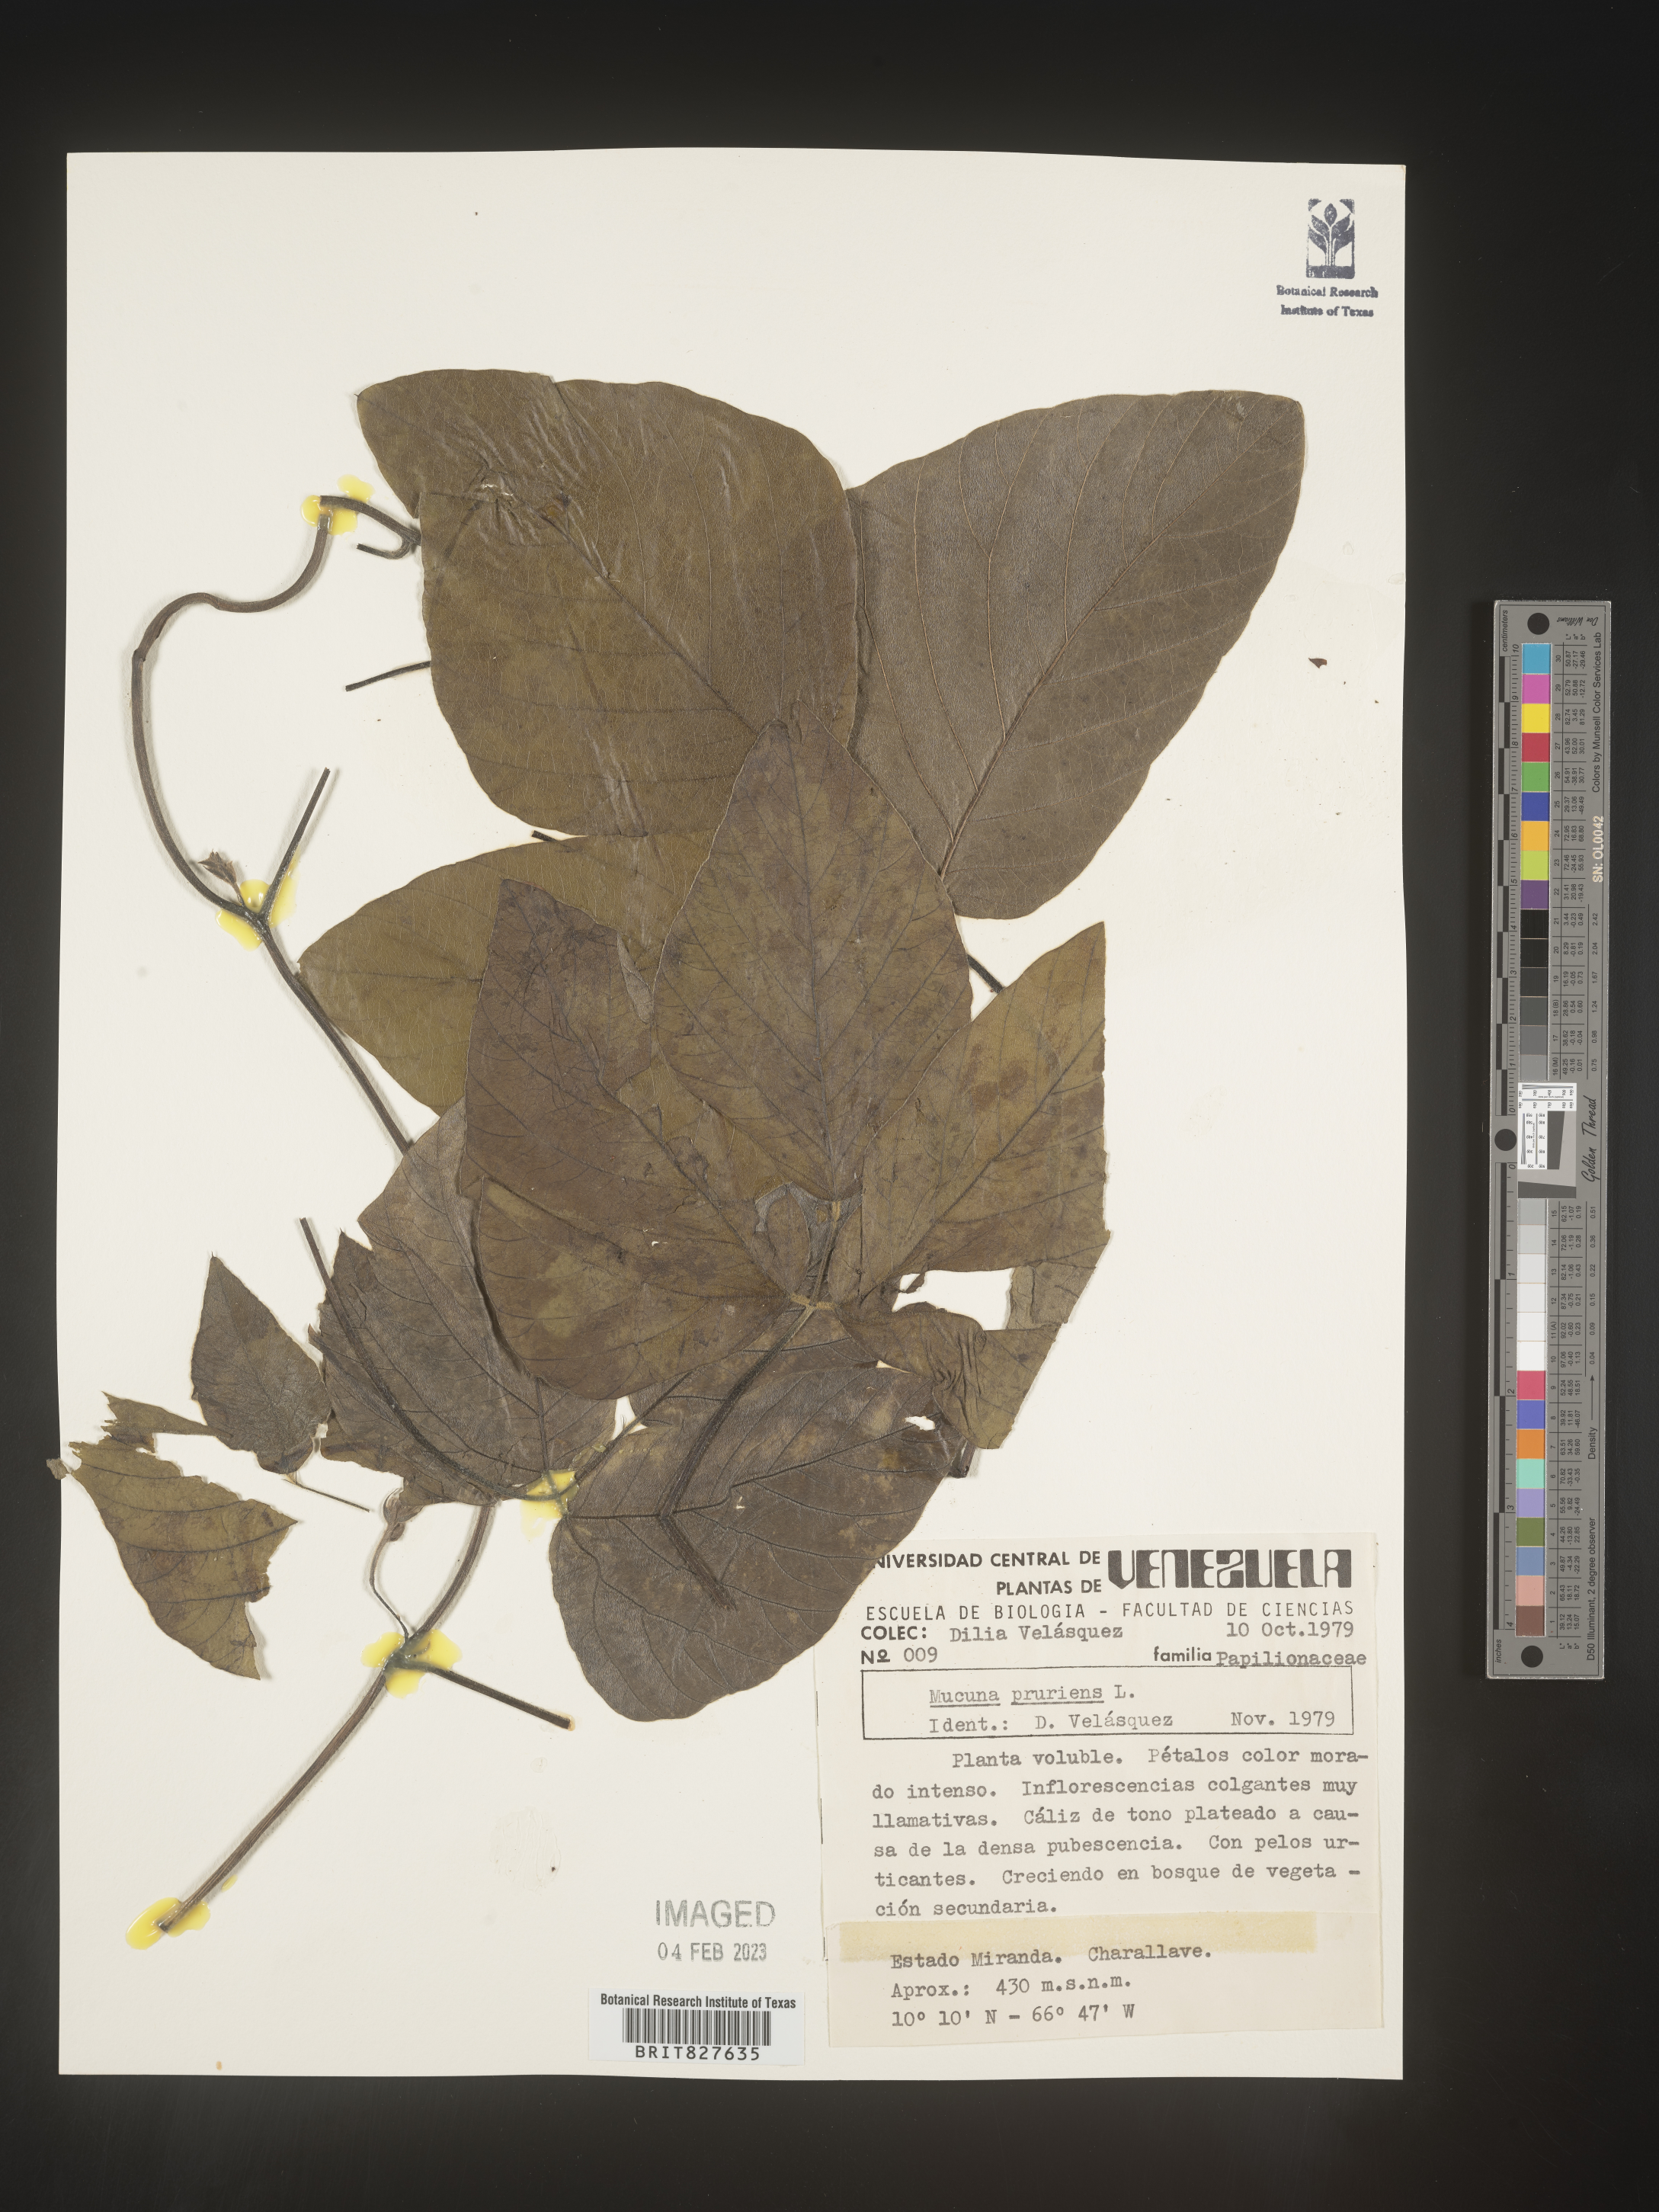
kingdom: Plantae
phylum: Tracheophyta
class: Magnoliopsida
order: Fabales
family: Fabaceae
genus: Mucuna
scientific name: Mucuna
